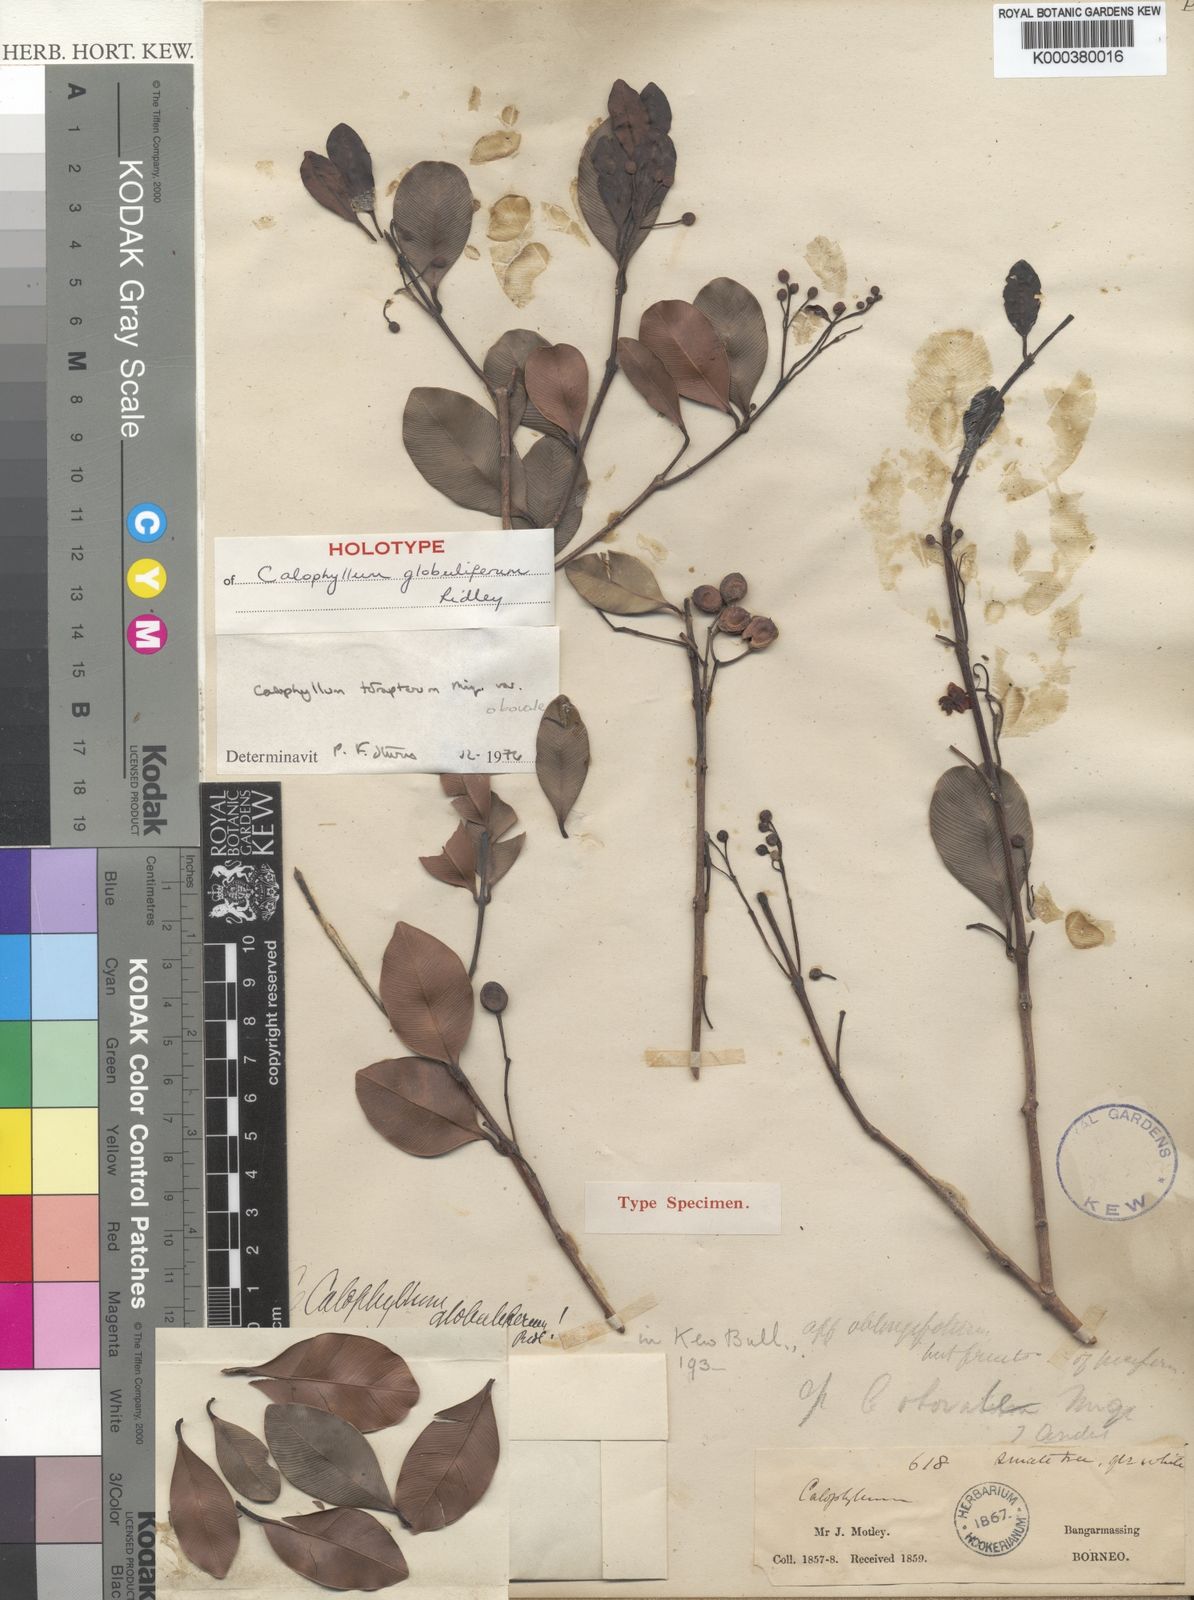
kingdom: Plantae
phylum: Tracheophyta
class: Magnoliopsida
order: Malpighiales
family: Calophyllaceae
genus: Calophyllum
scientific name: Calophyllum tetrapterum
